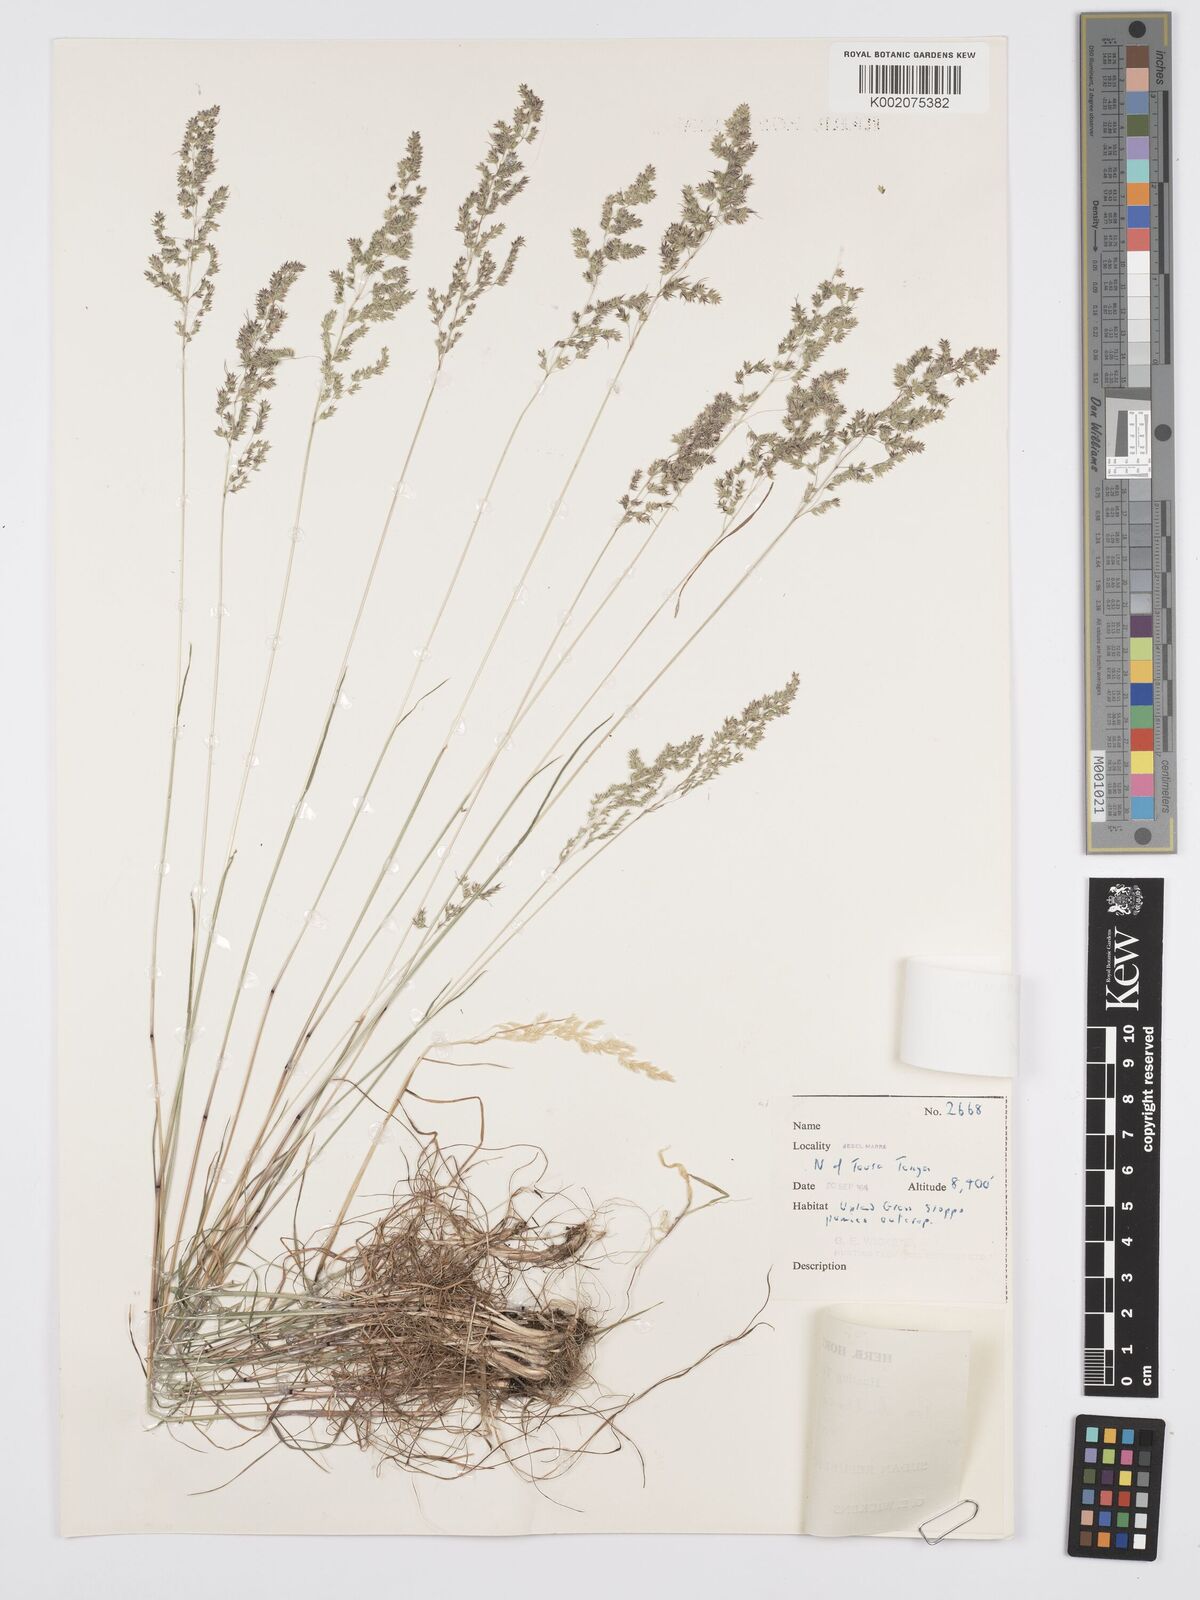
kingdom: Plantae
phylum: Tracheophyta
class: Liliopsida
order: Poales
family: Poaceae
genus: Poa
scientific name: Poa sinaica
